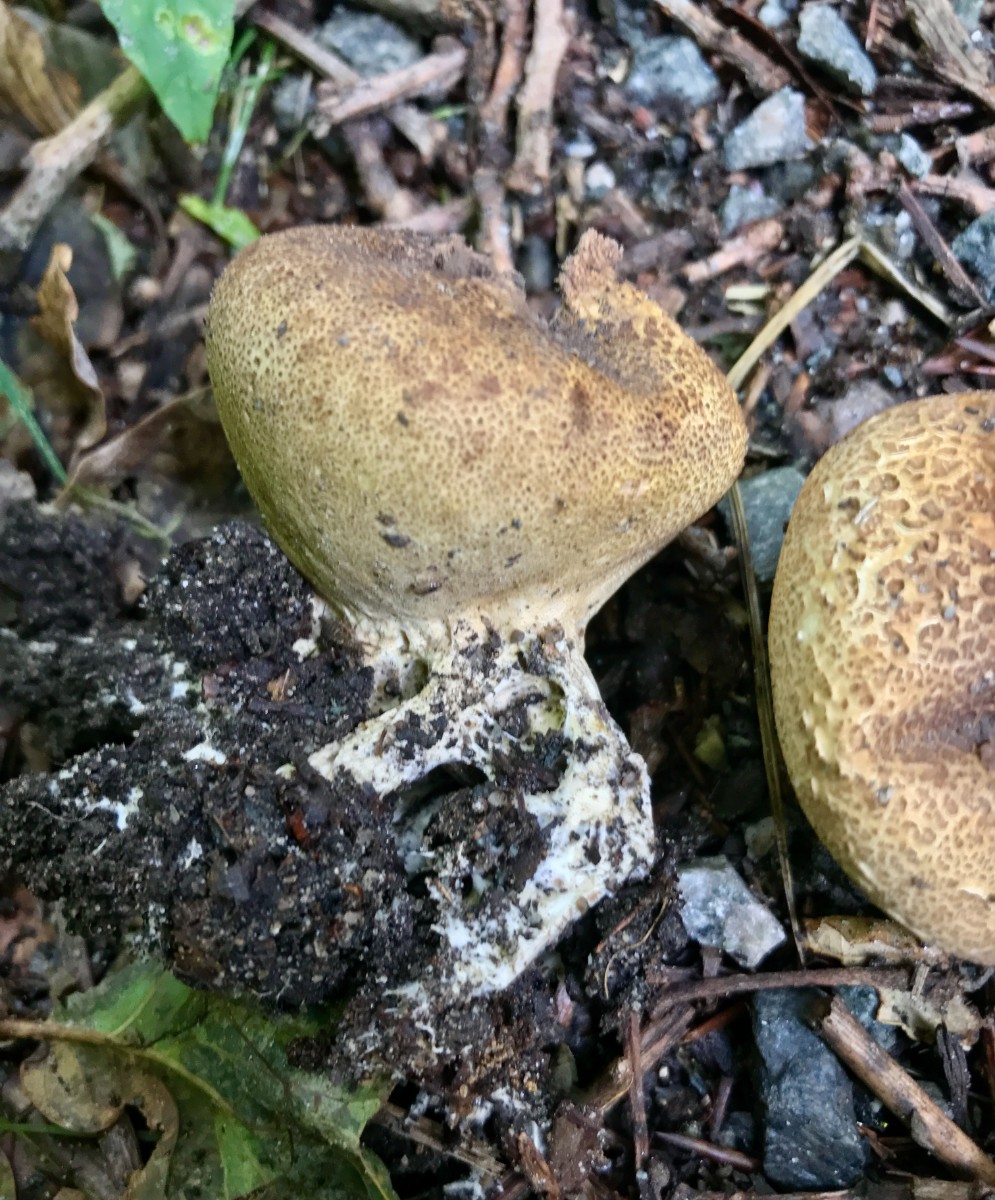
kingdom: Fungi
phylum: Basidiomycota
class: Agaricomycetes
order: Boletales
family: Sclerodermataceae
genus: Scleroderma
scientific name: Scleroderma verrucosum
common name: stilket bruskbold
